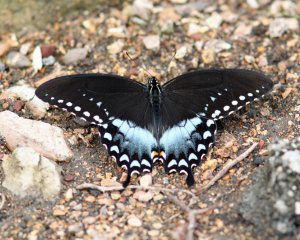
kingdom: Animalia
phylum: Arthropoda
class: Insecta
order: Lepidoptera
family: Papilionidae
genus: Pterourus
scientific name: Pterourus troilus
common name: Spicebush Swallowtail
